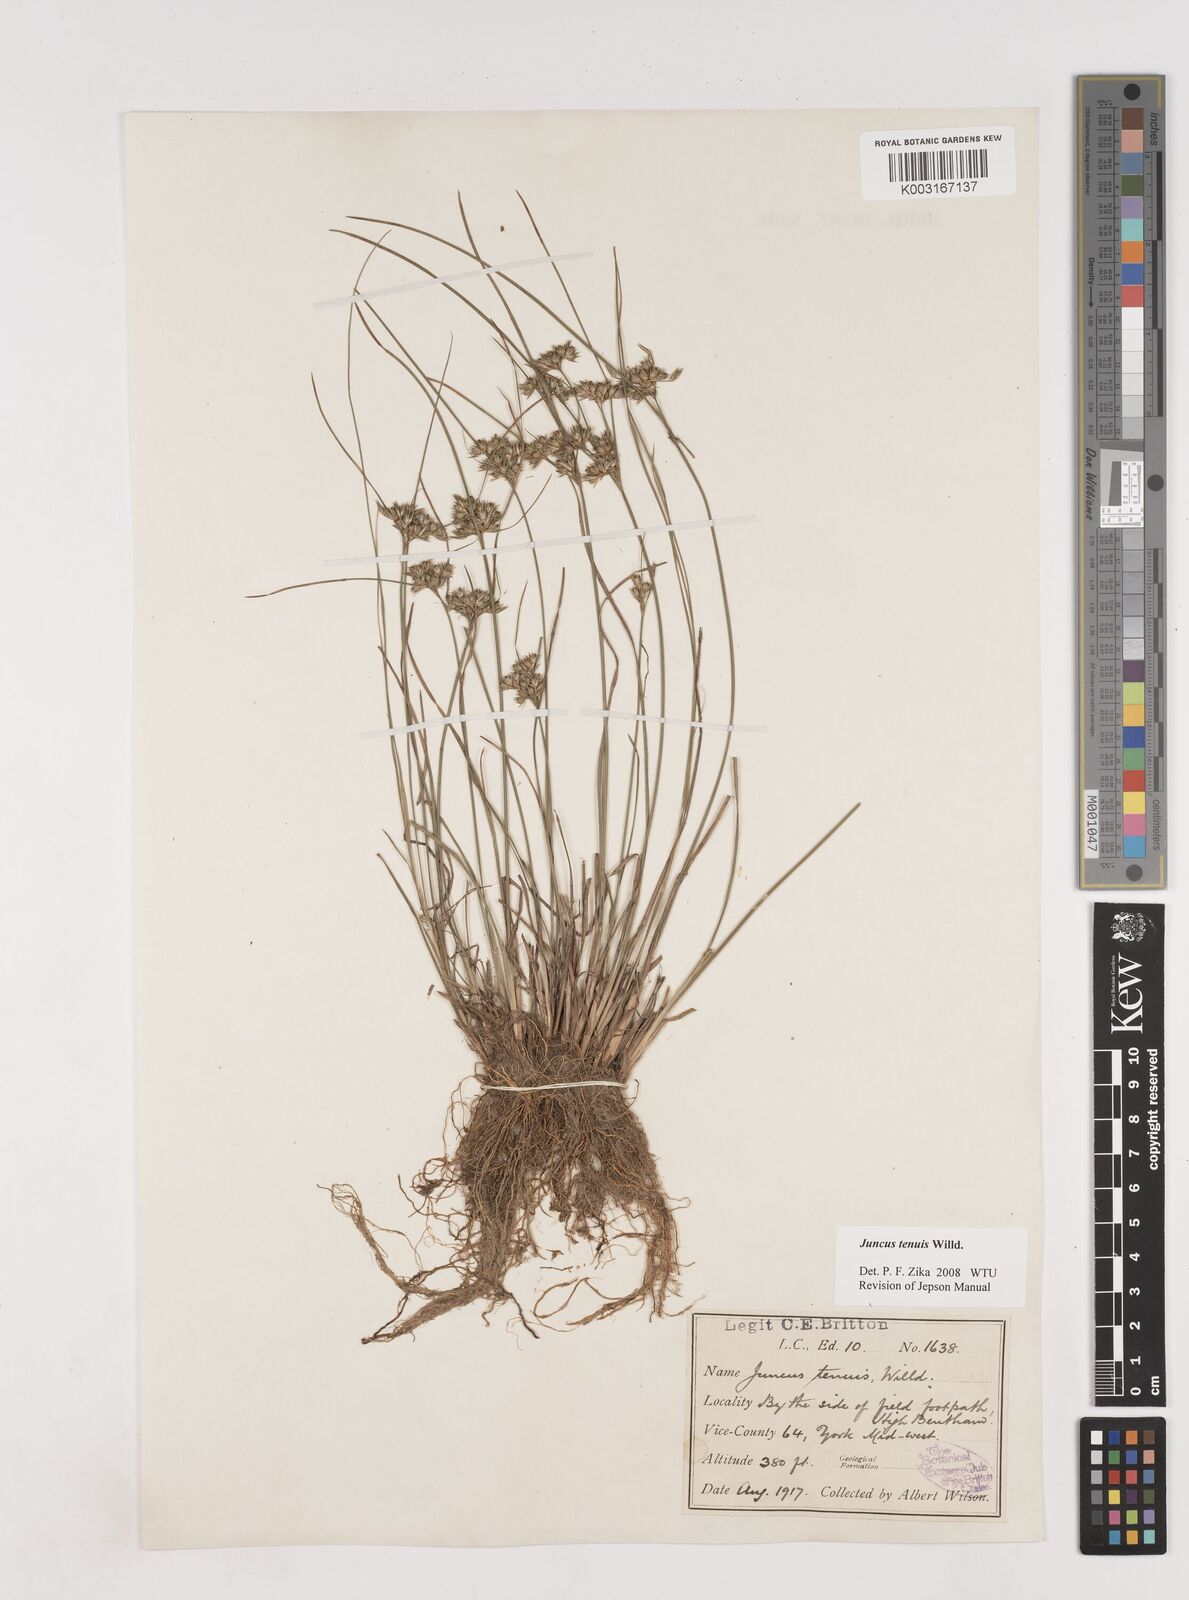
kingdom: Plantae
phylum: Tracheophyta
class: Liliopsida
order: Poales
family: Juncaceae
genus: Juncus
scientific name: Juncus tenuis
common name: Slender rush
